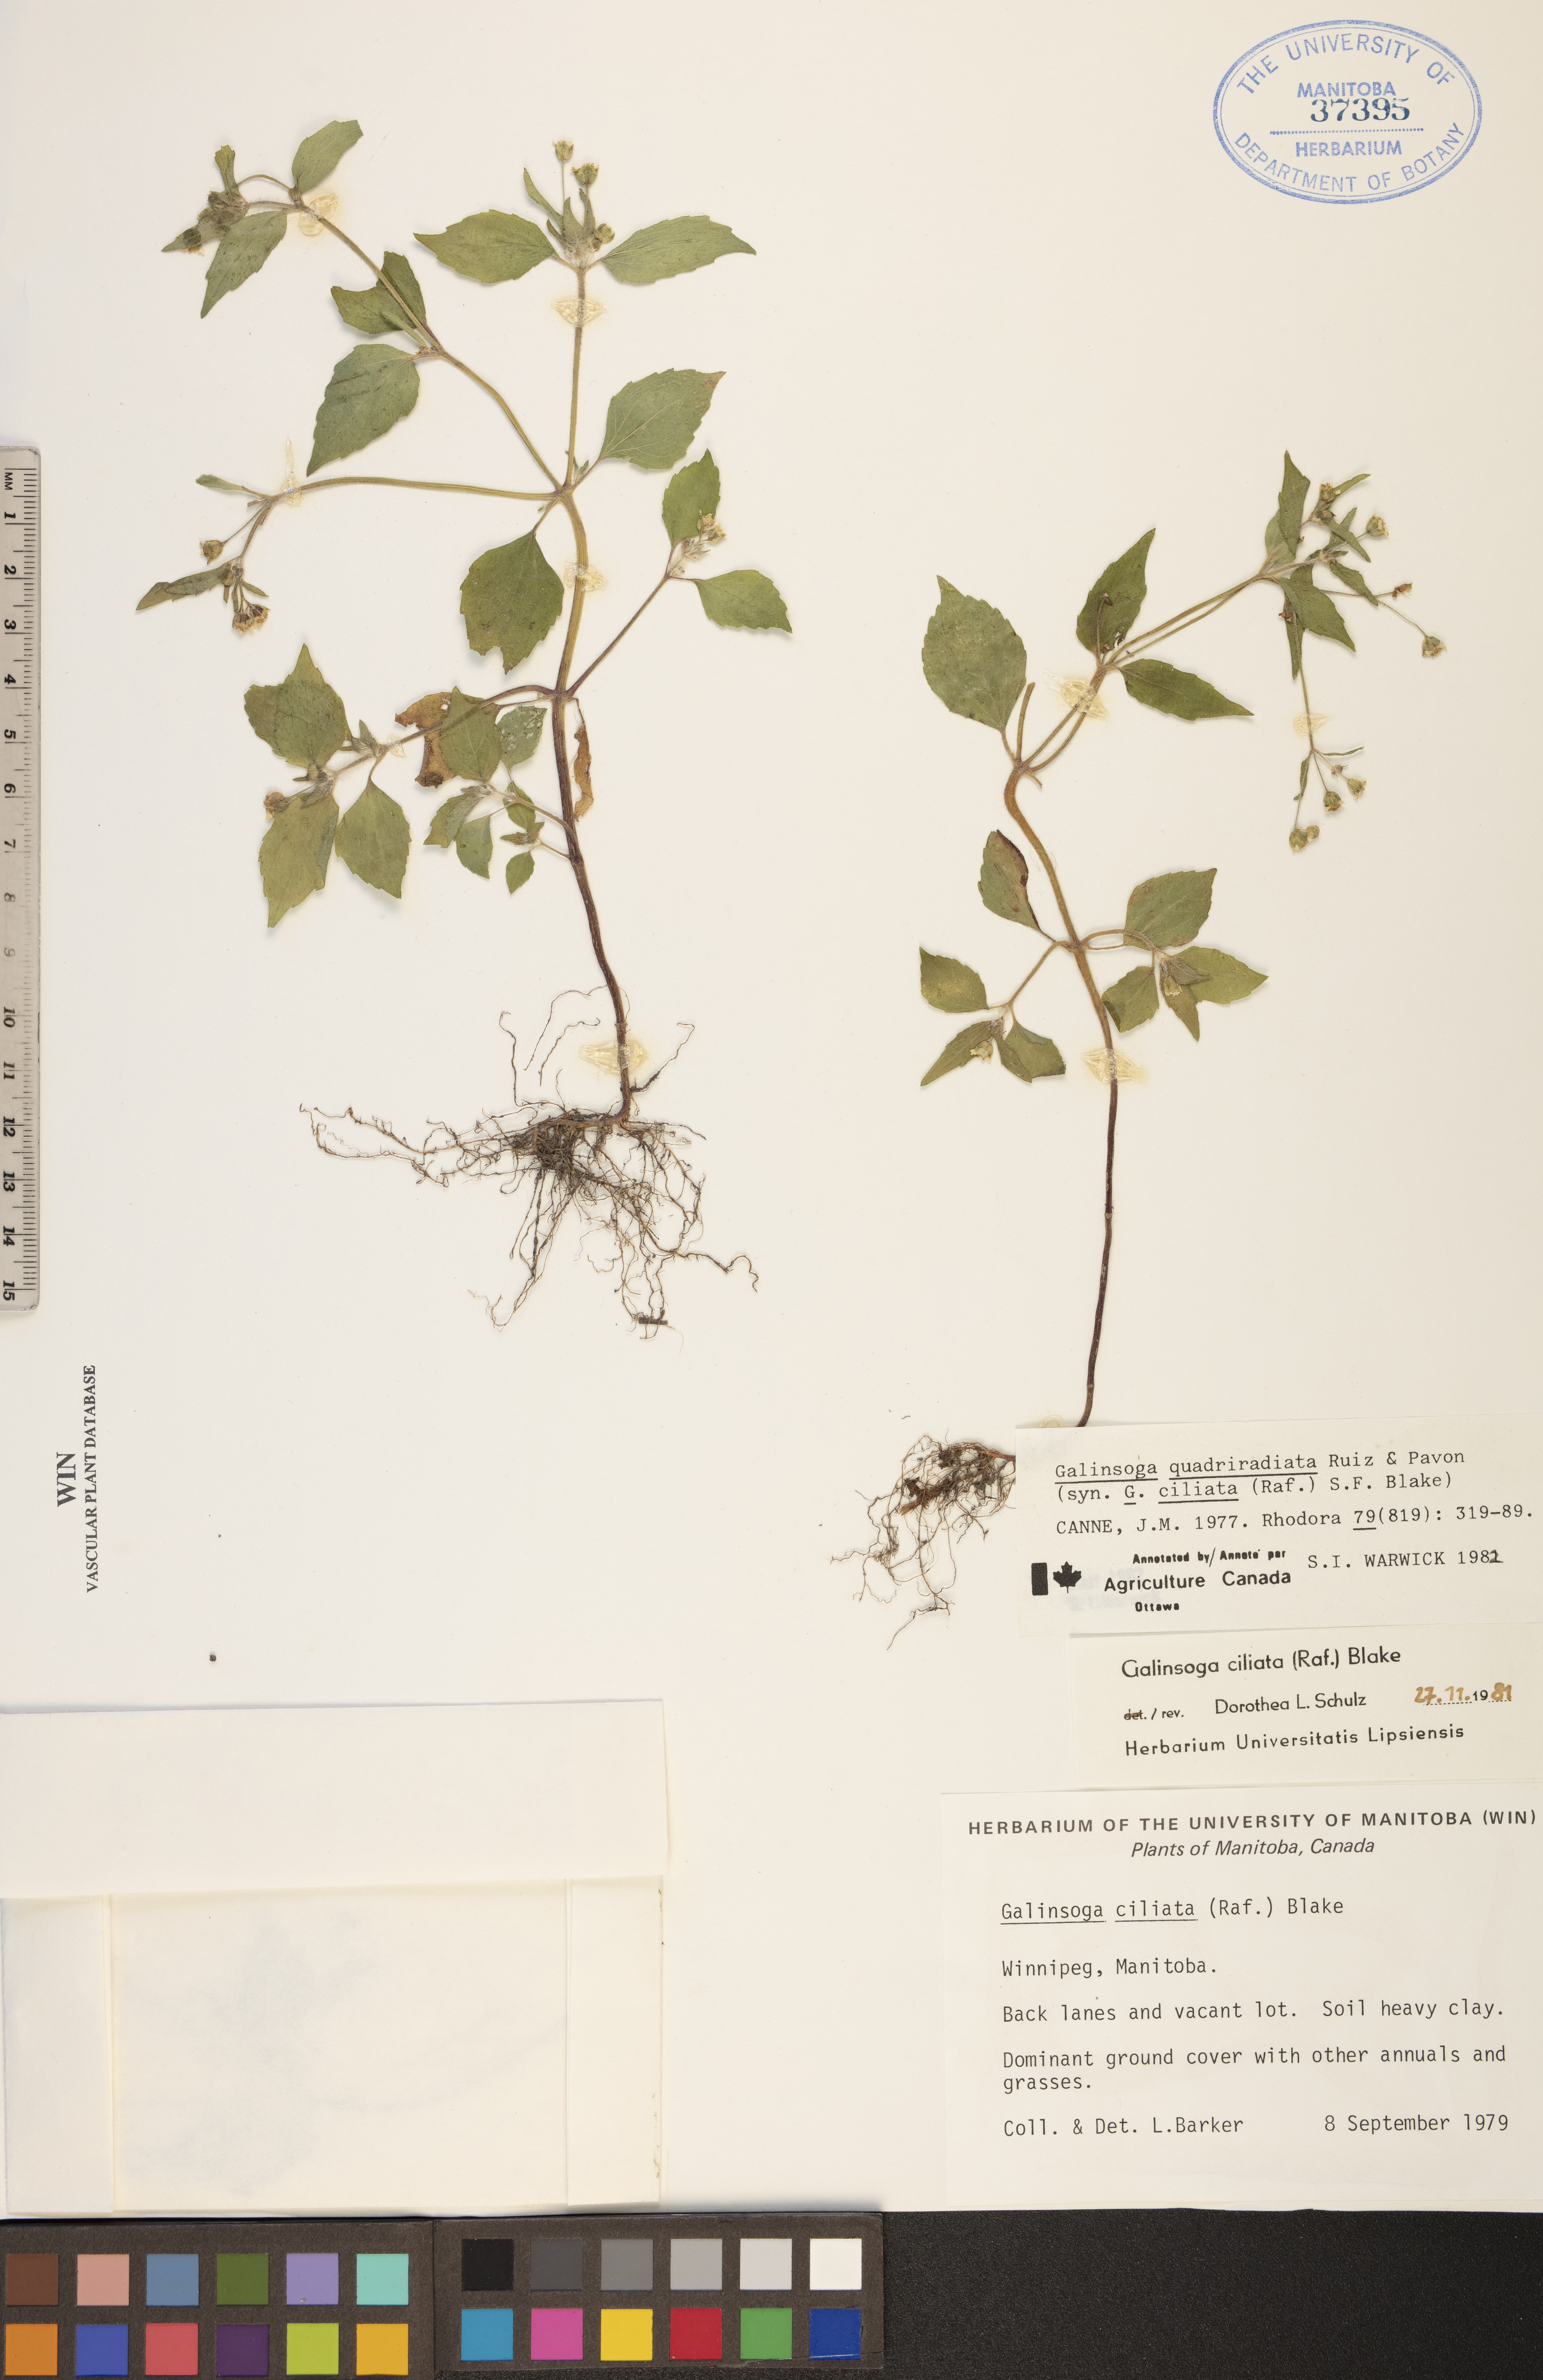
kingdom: Plantae
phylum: Tracheophyta
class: Magnoliopsida
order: Asterales
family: Asteraceae
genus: Galinsoga
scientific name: Galinsoga quadriradiata
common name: Shaggy soldier
